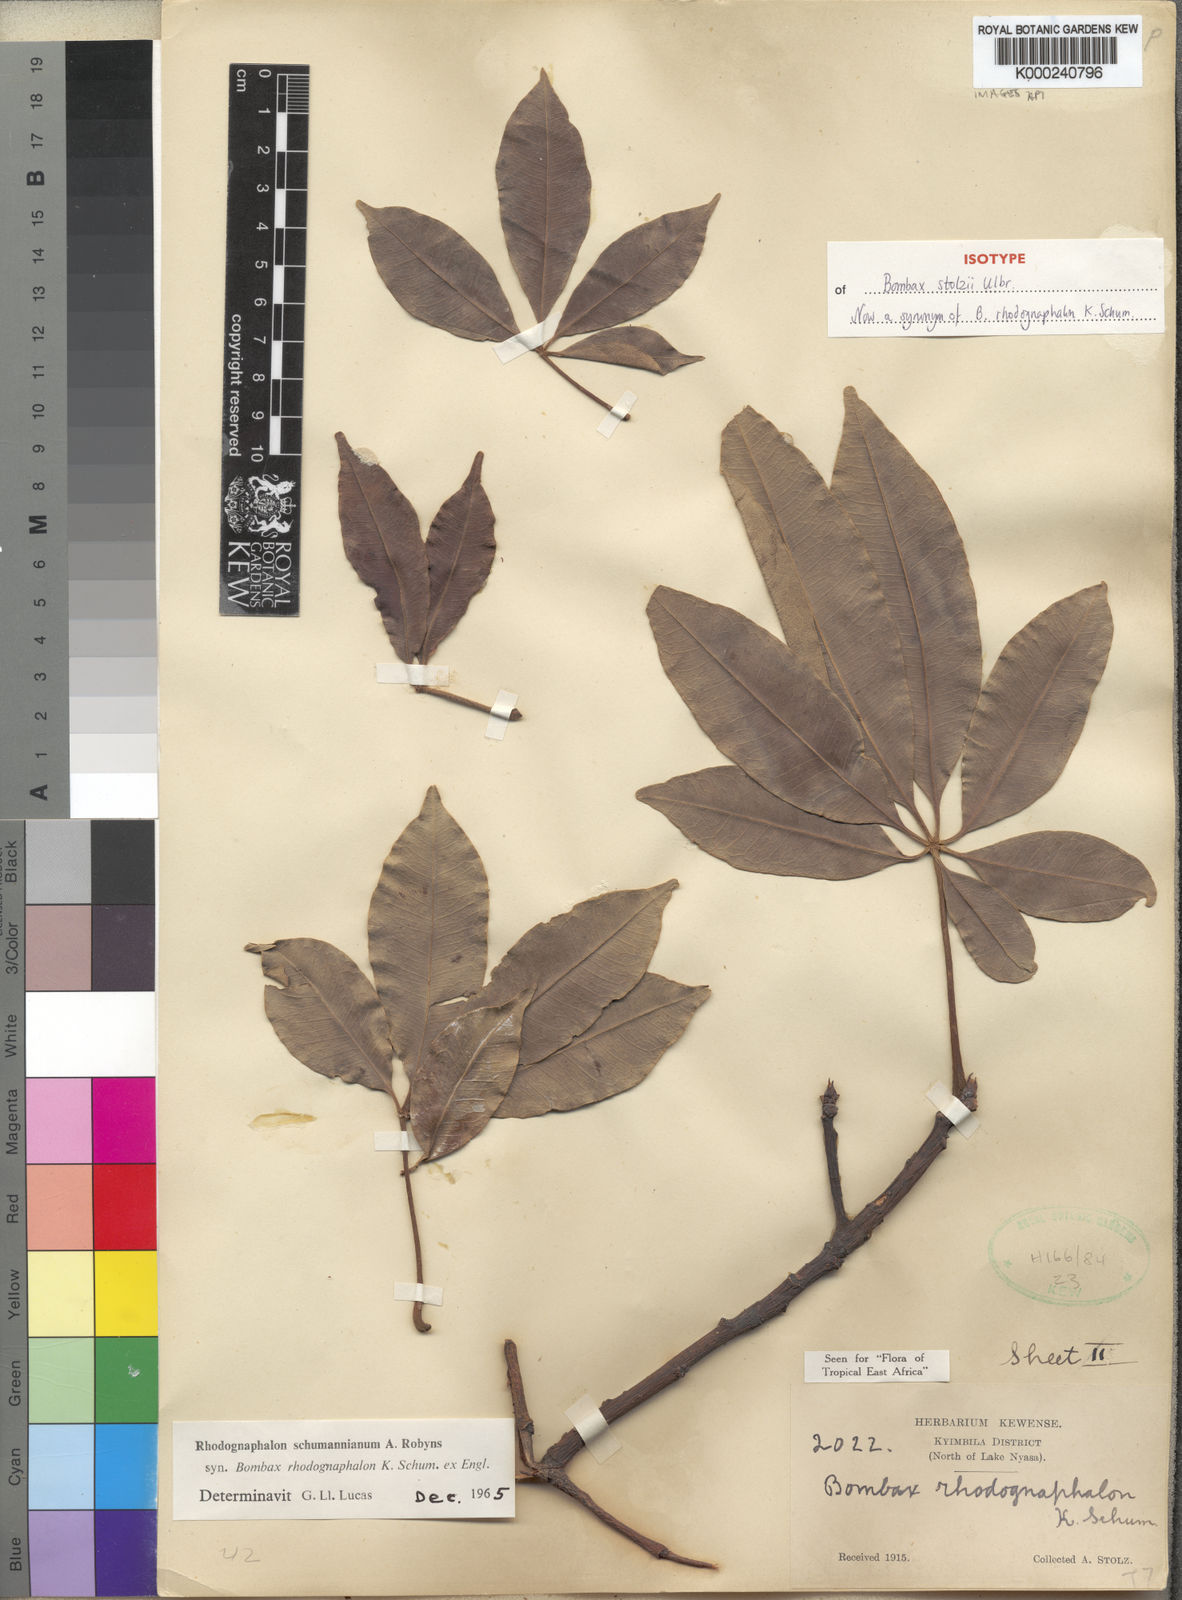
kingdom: Plantae
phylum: Tracheophyta
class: Magnoliopsida
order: Malvales
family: Malvaceae
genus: Rhodognaphalon
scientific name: Rhodognaphalon stolzii
